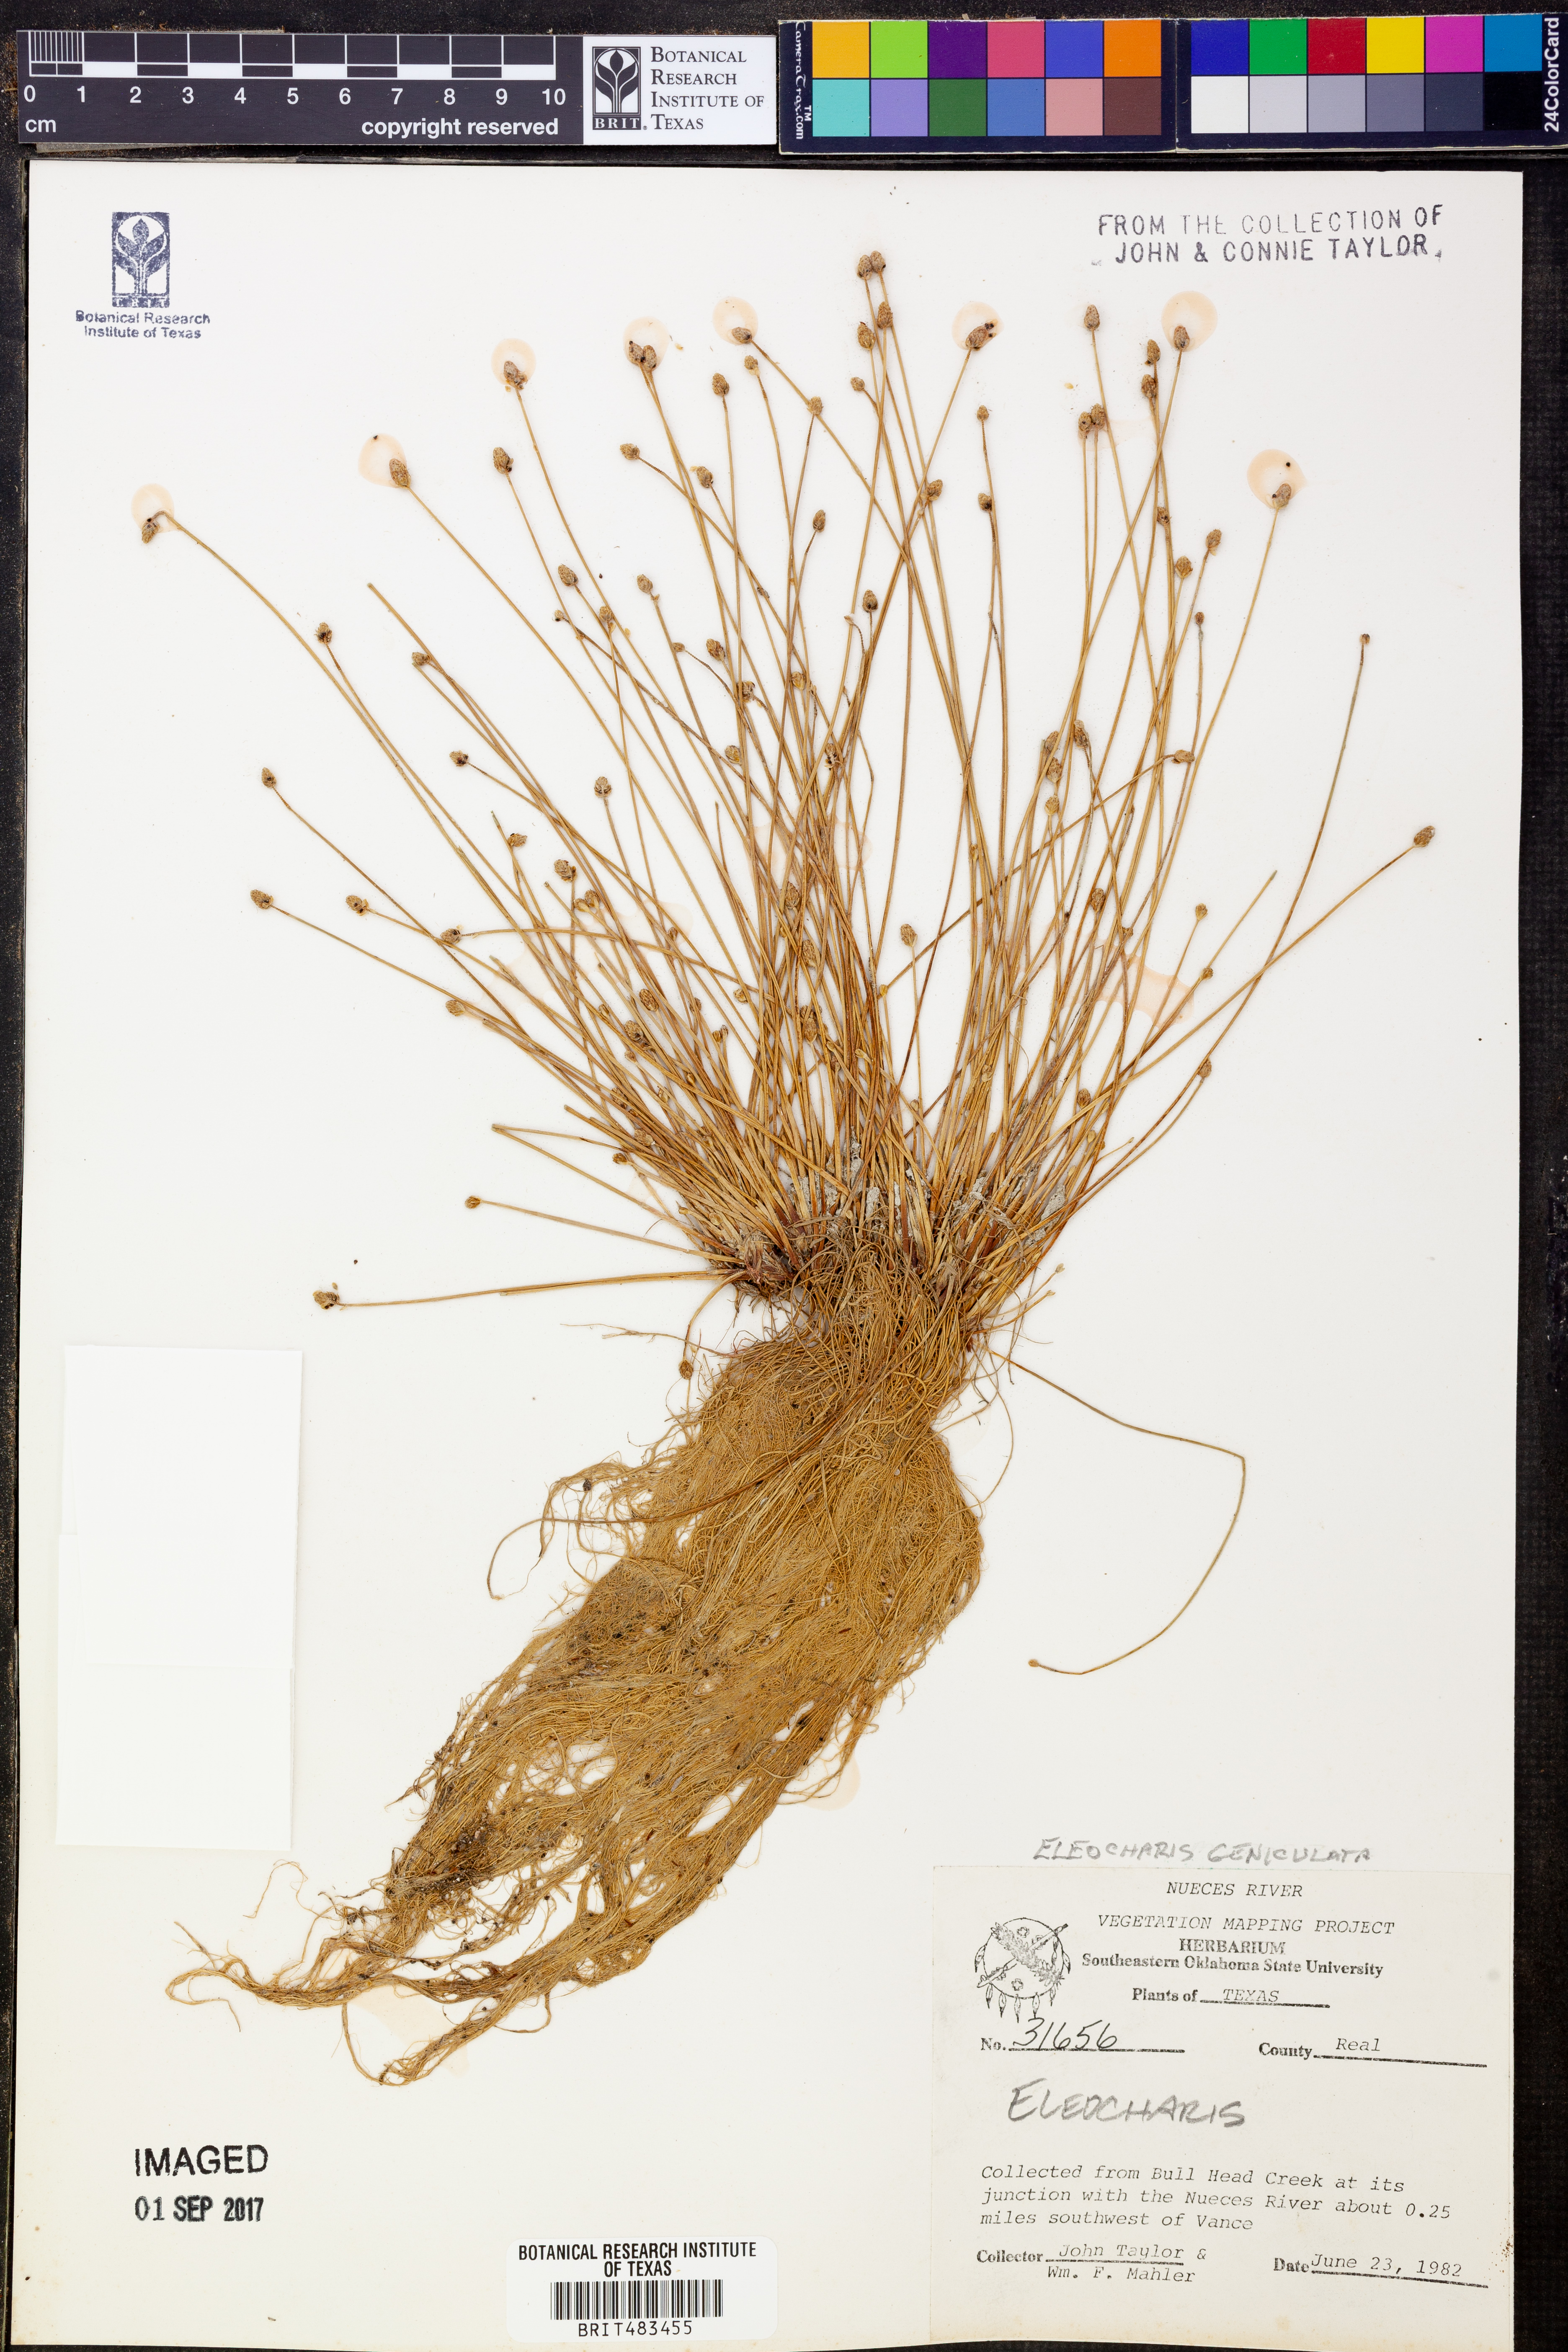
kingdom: Plantae
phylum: Tracheophyta
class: Liliopsida
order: Poales
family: Cyperaceae
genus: Eleocharis
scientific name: Eleocharis geniculata
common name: Canada spikesedge
